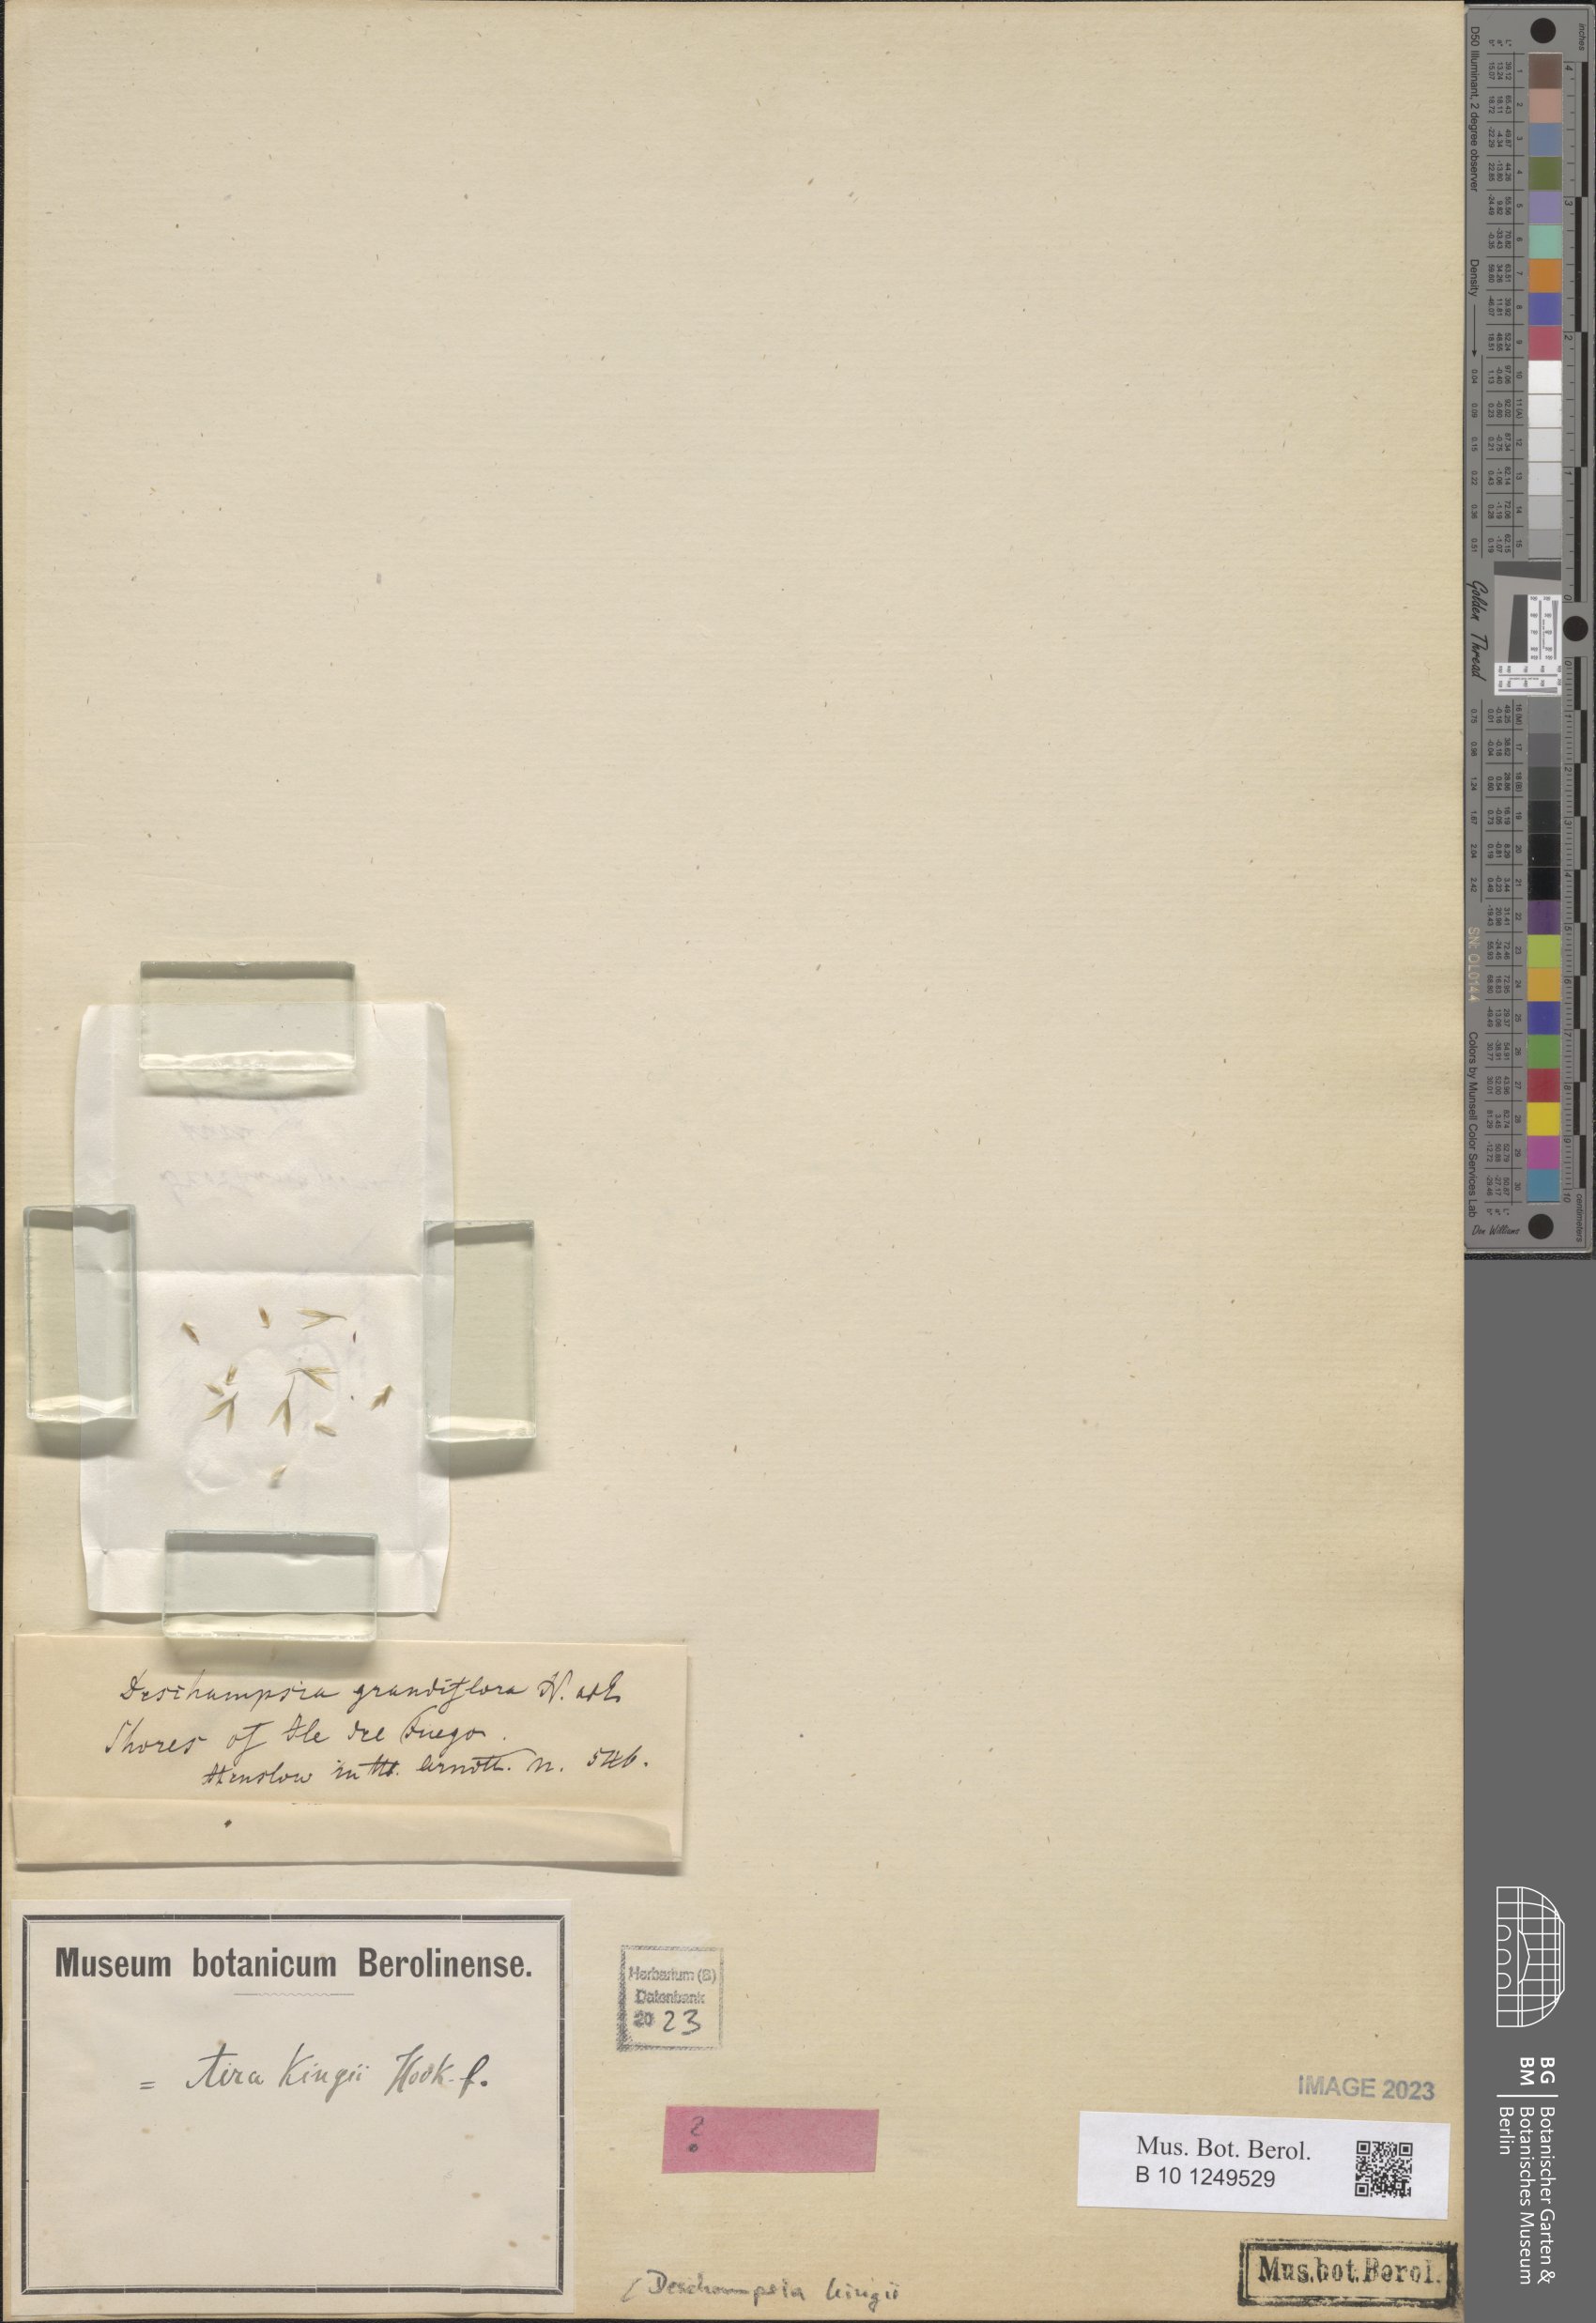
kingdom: Plantae
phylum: Tracheophyta
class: Liliopsida
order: Poales
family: Poaceae
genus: Deschampsia
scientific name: Deschampsia kingii
